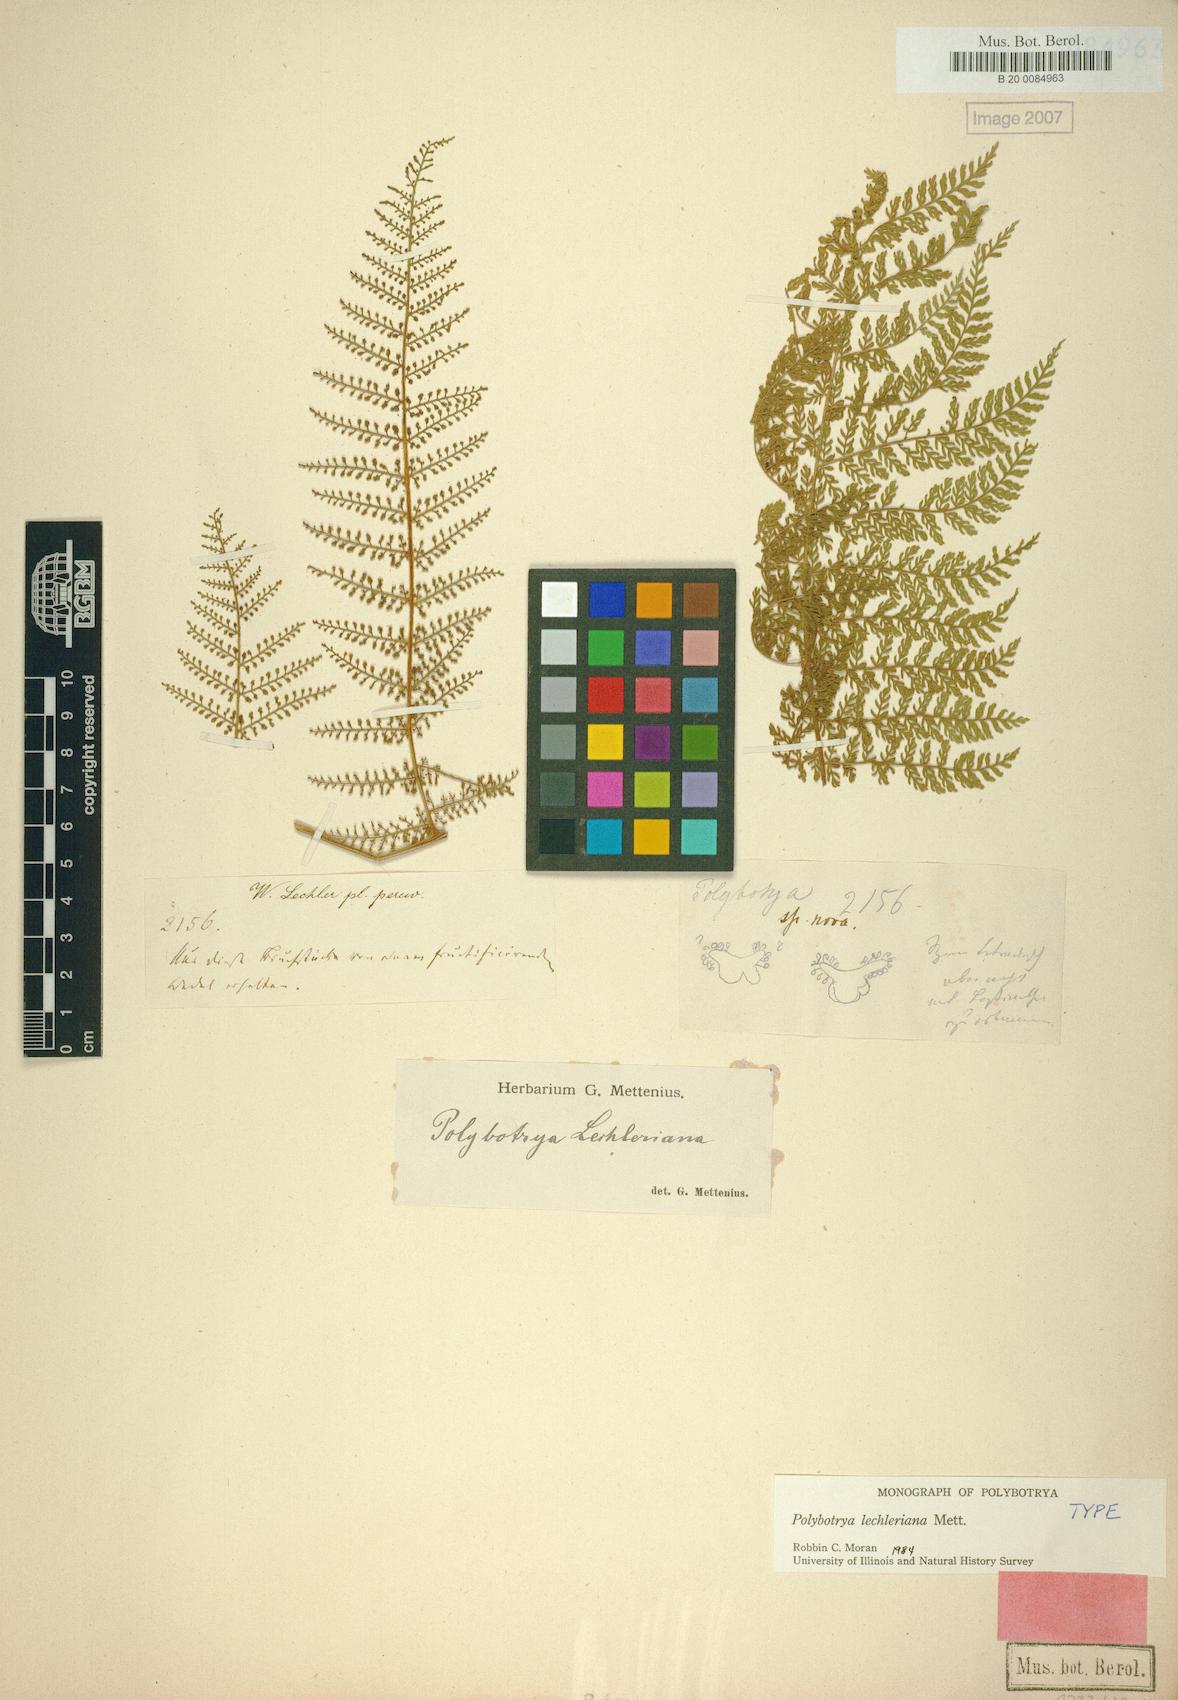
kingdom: Plantae
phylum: Tracheophyta
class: Polypodiopsida
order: Polypodiales
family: Dryopteridaceae
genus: Polybotrya
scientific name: Polybotrya lechleriana
